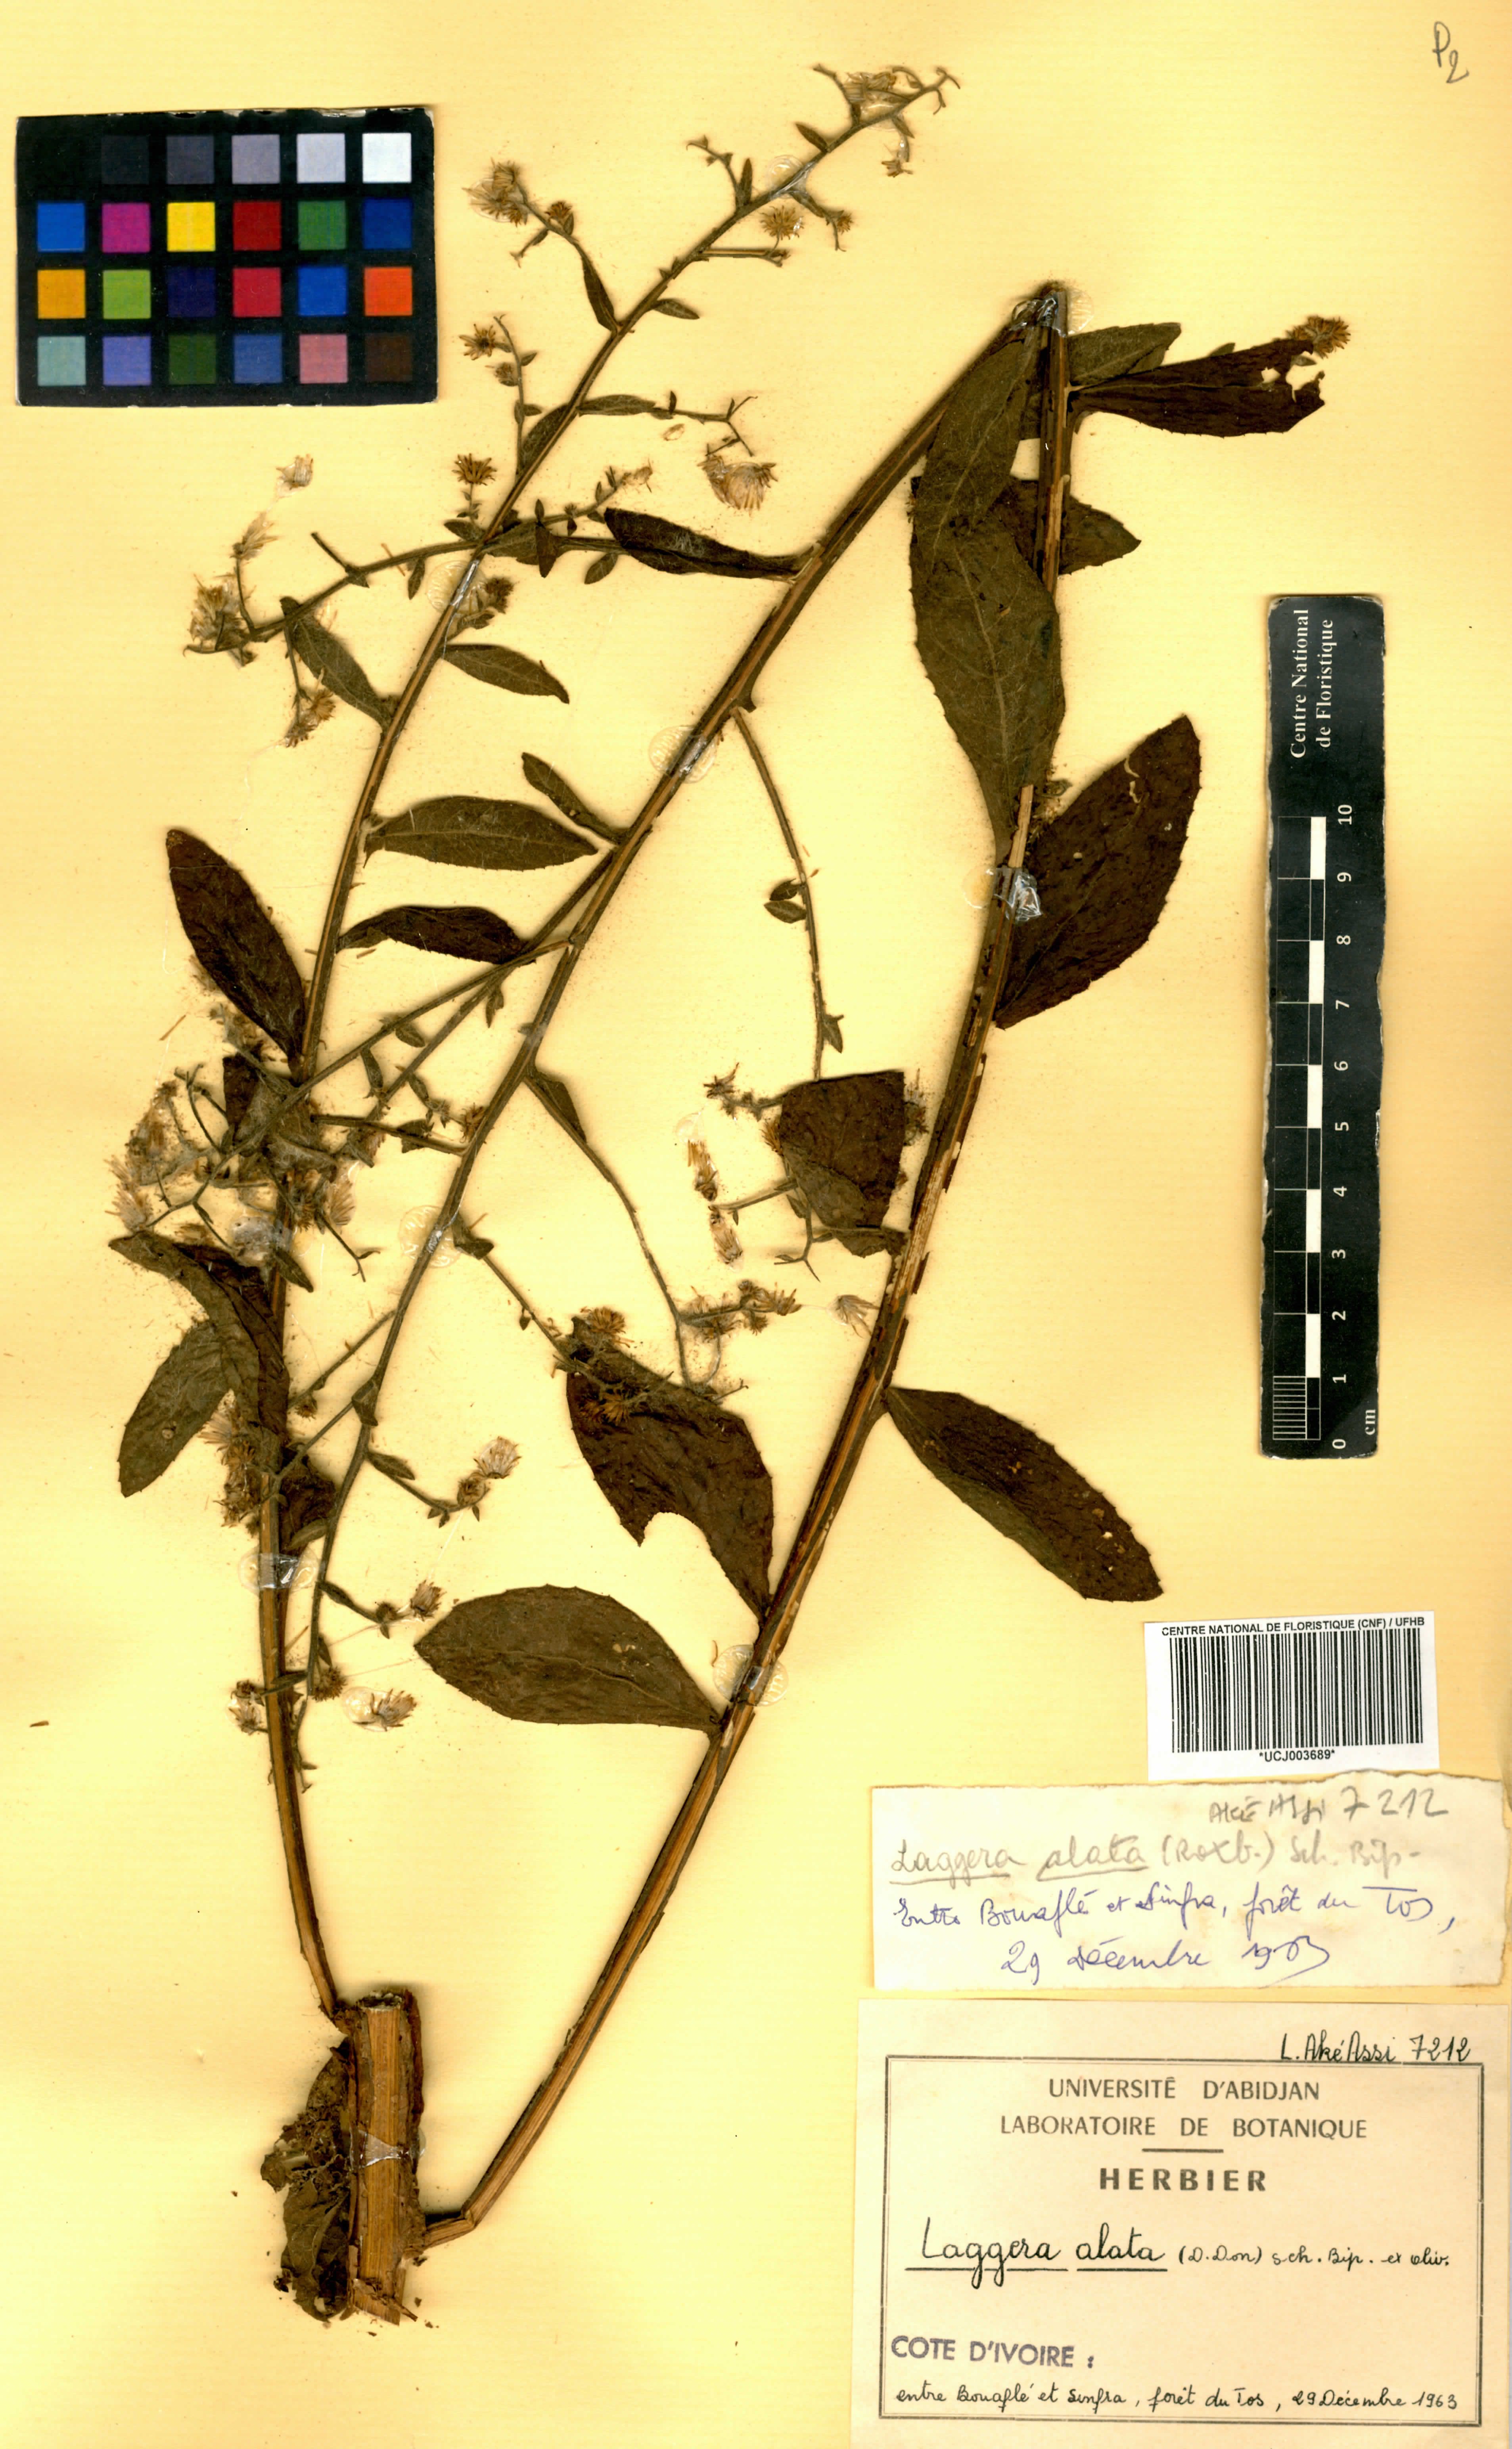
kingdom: Plantae
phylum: Tracheophyta
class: Magnoliopsida
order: Asterales
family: Asteraceae
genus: Laggera
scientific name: Laggera alata
